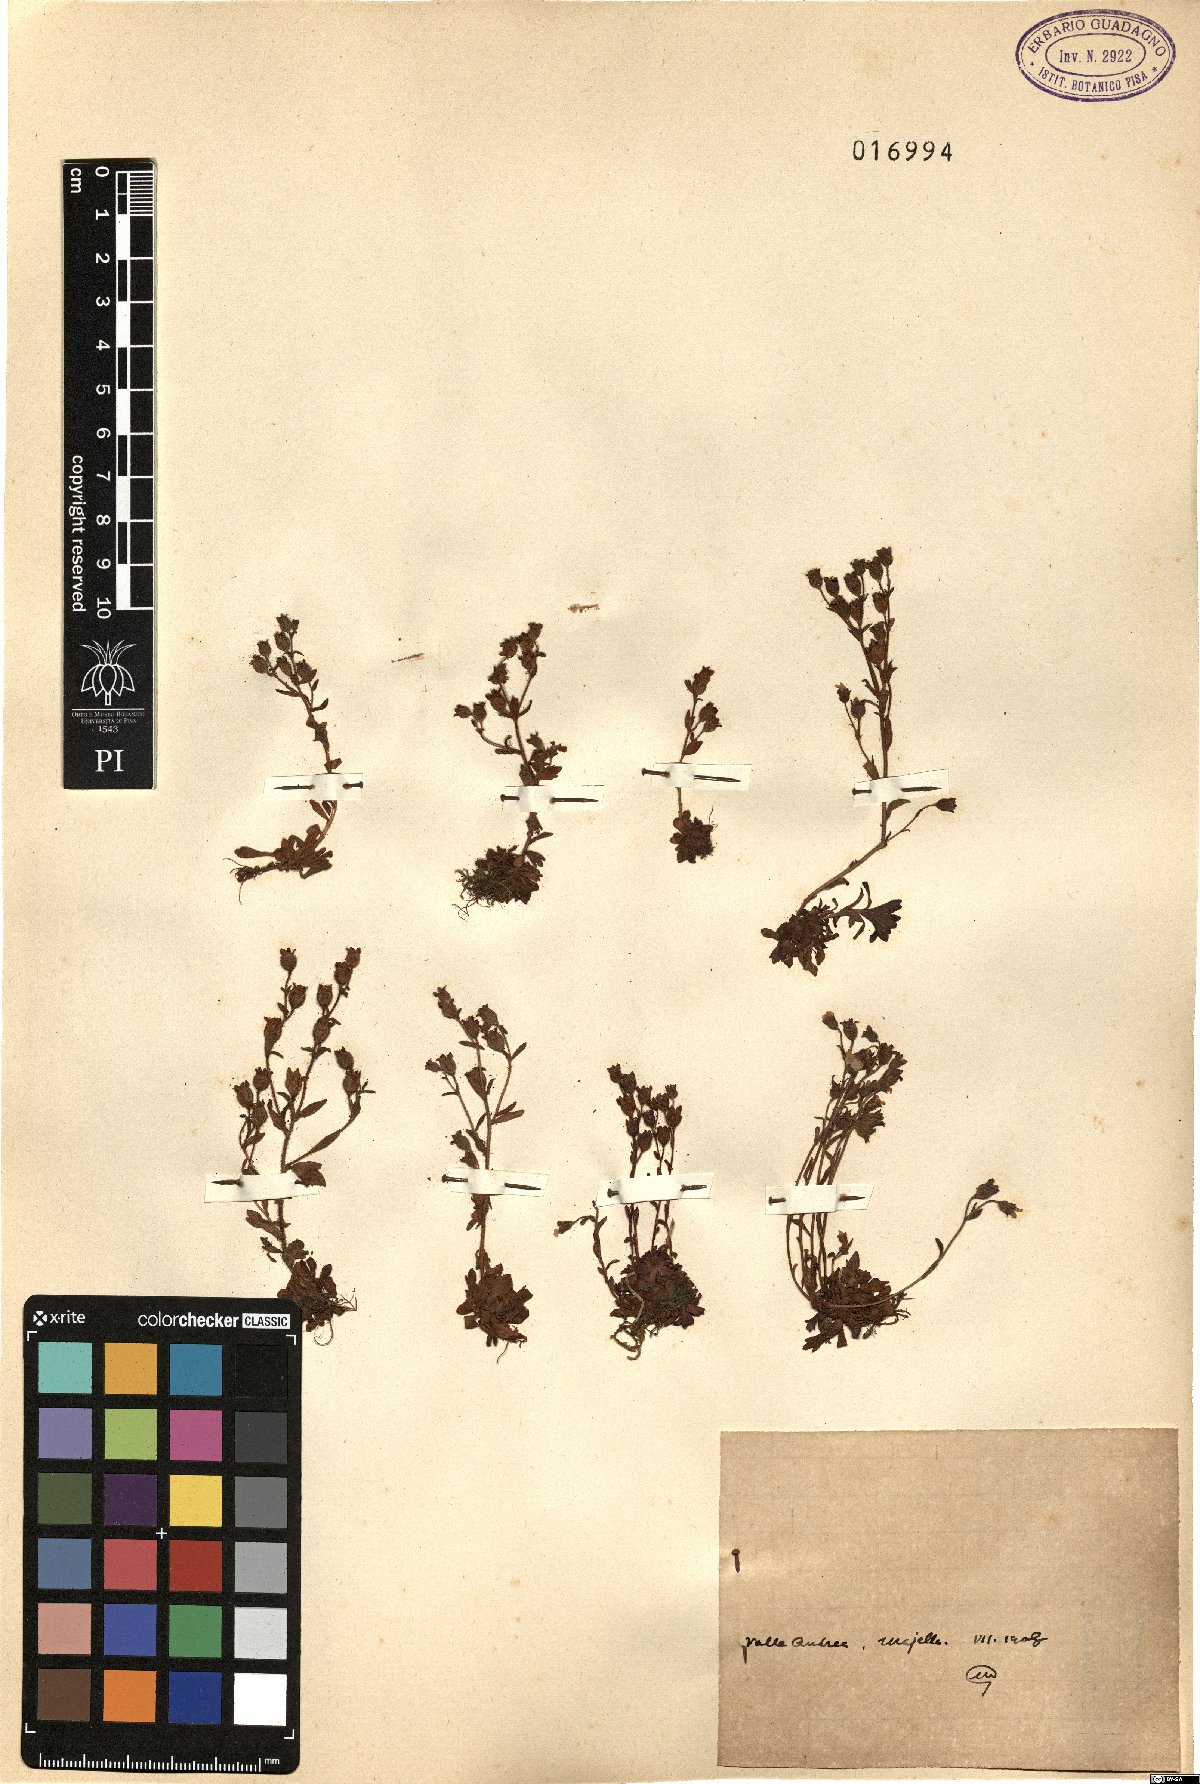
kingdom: Plantae
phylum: Tracheophyta
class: Magnoliopsida
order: Saxifragales
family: Saxifragaceae
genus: Saxifraga
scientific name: Saxifraga
